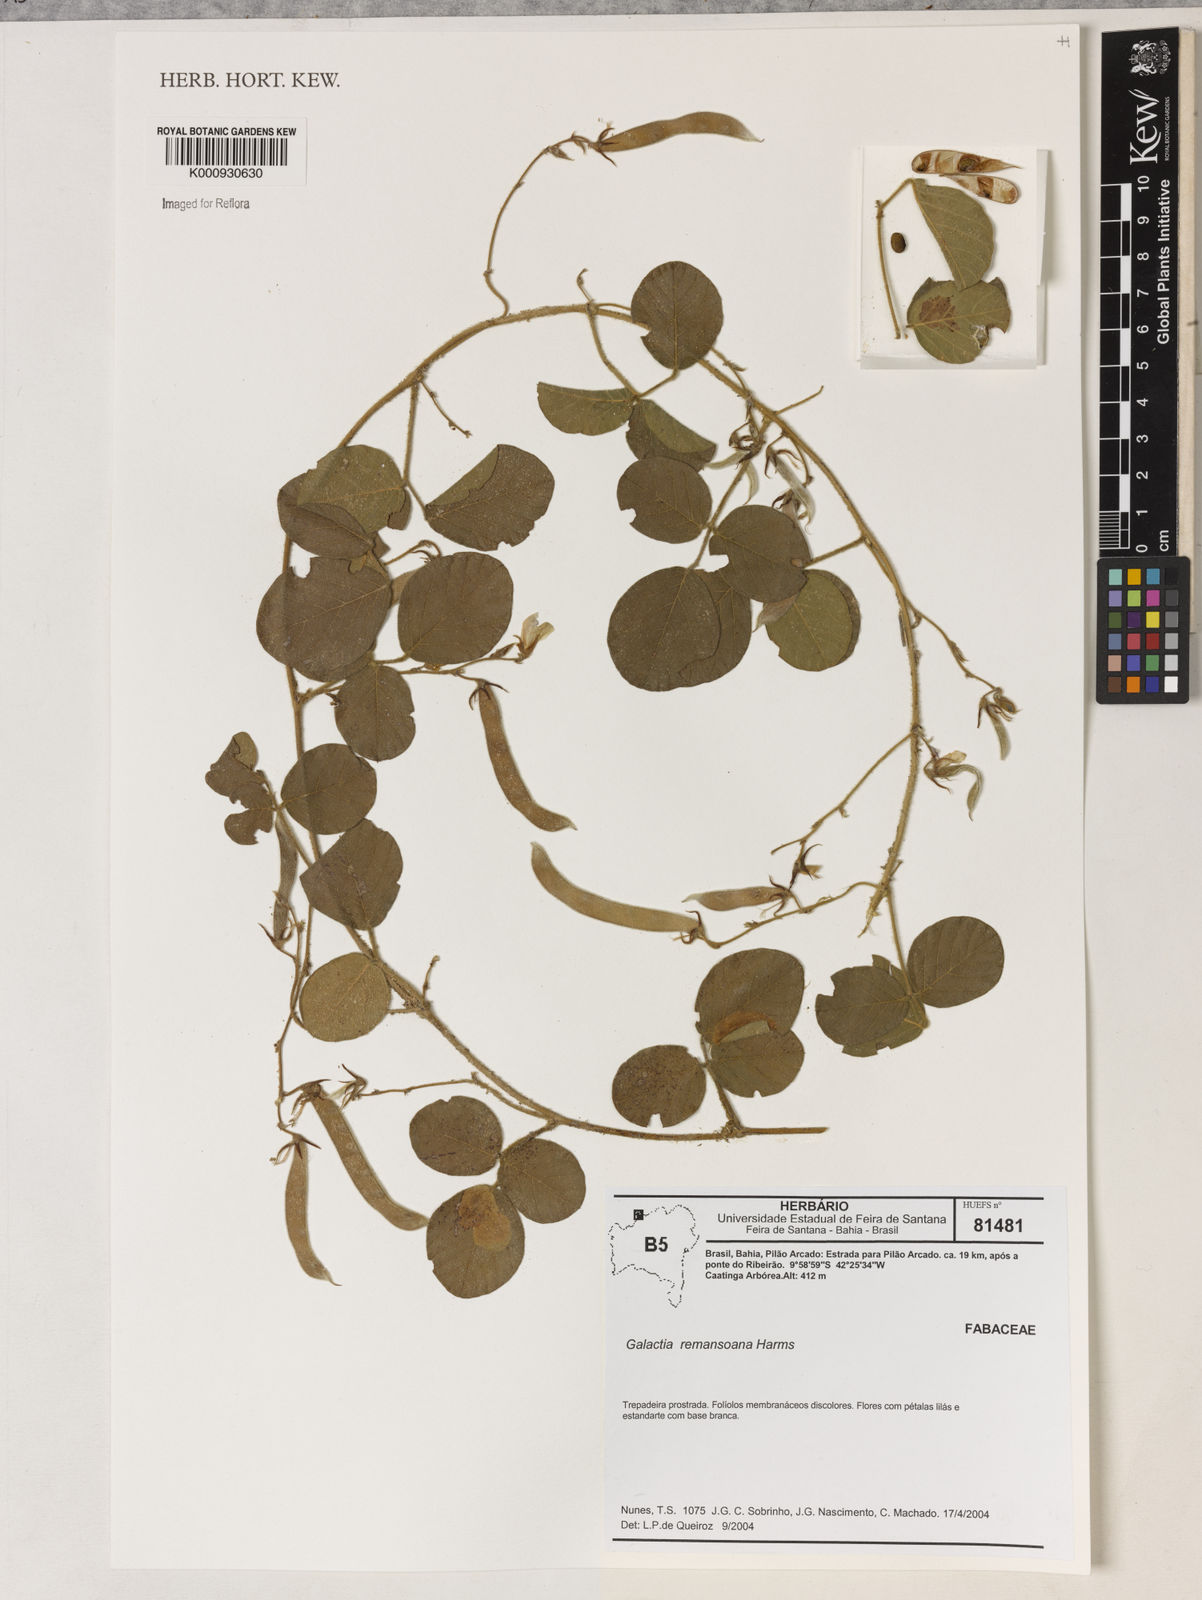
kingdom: Plantae
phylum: Tracheophyta
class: Magnoliopsida
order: Fabales
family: Fabaceae
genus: Galactia
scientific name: Galactia remansoana
